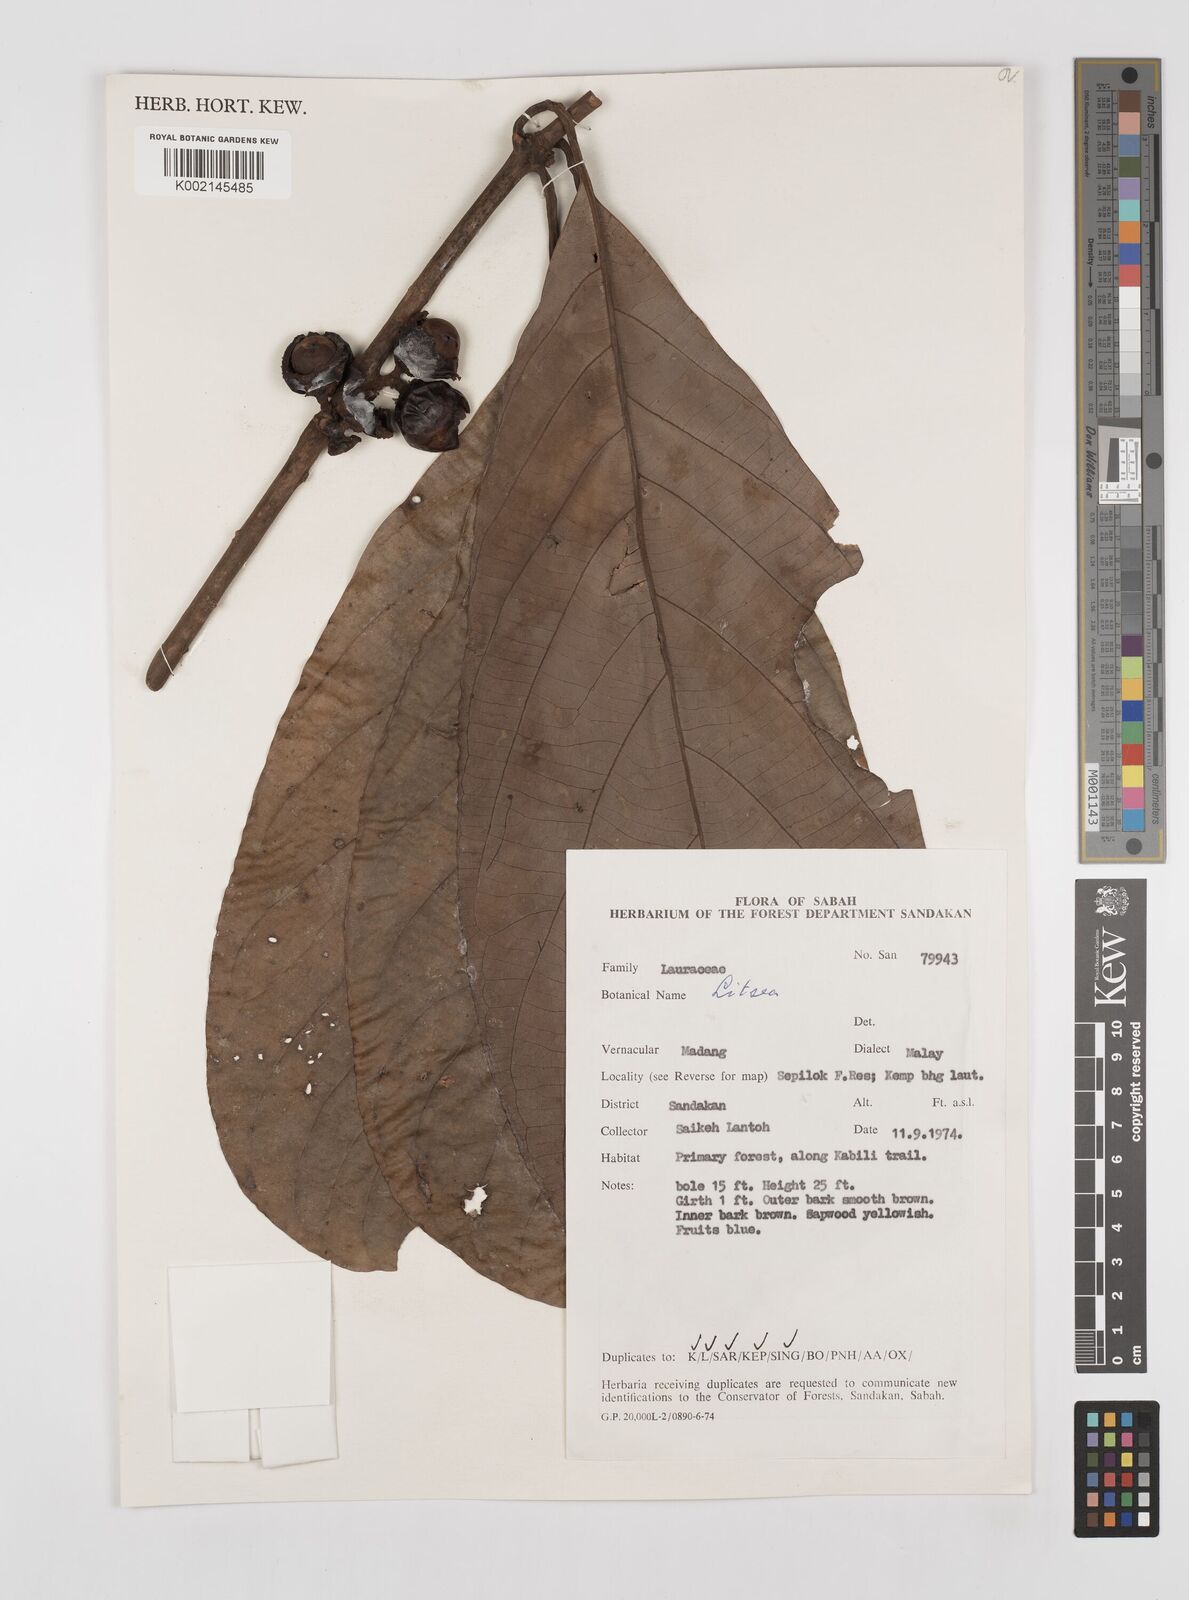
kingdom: Plantae
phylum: Tracheophyta
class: Magnoliopsida
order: Laurales
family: Lauraceae
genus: Litsea
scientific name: Litsea
